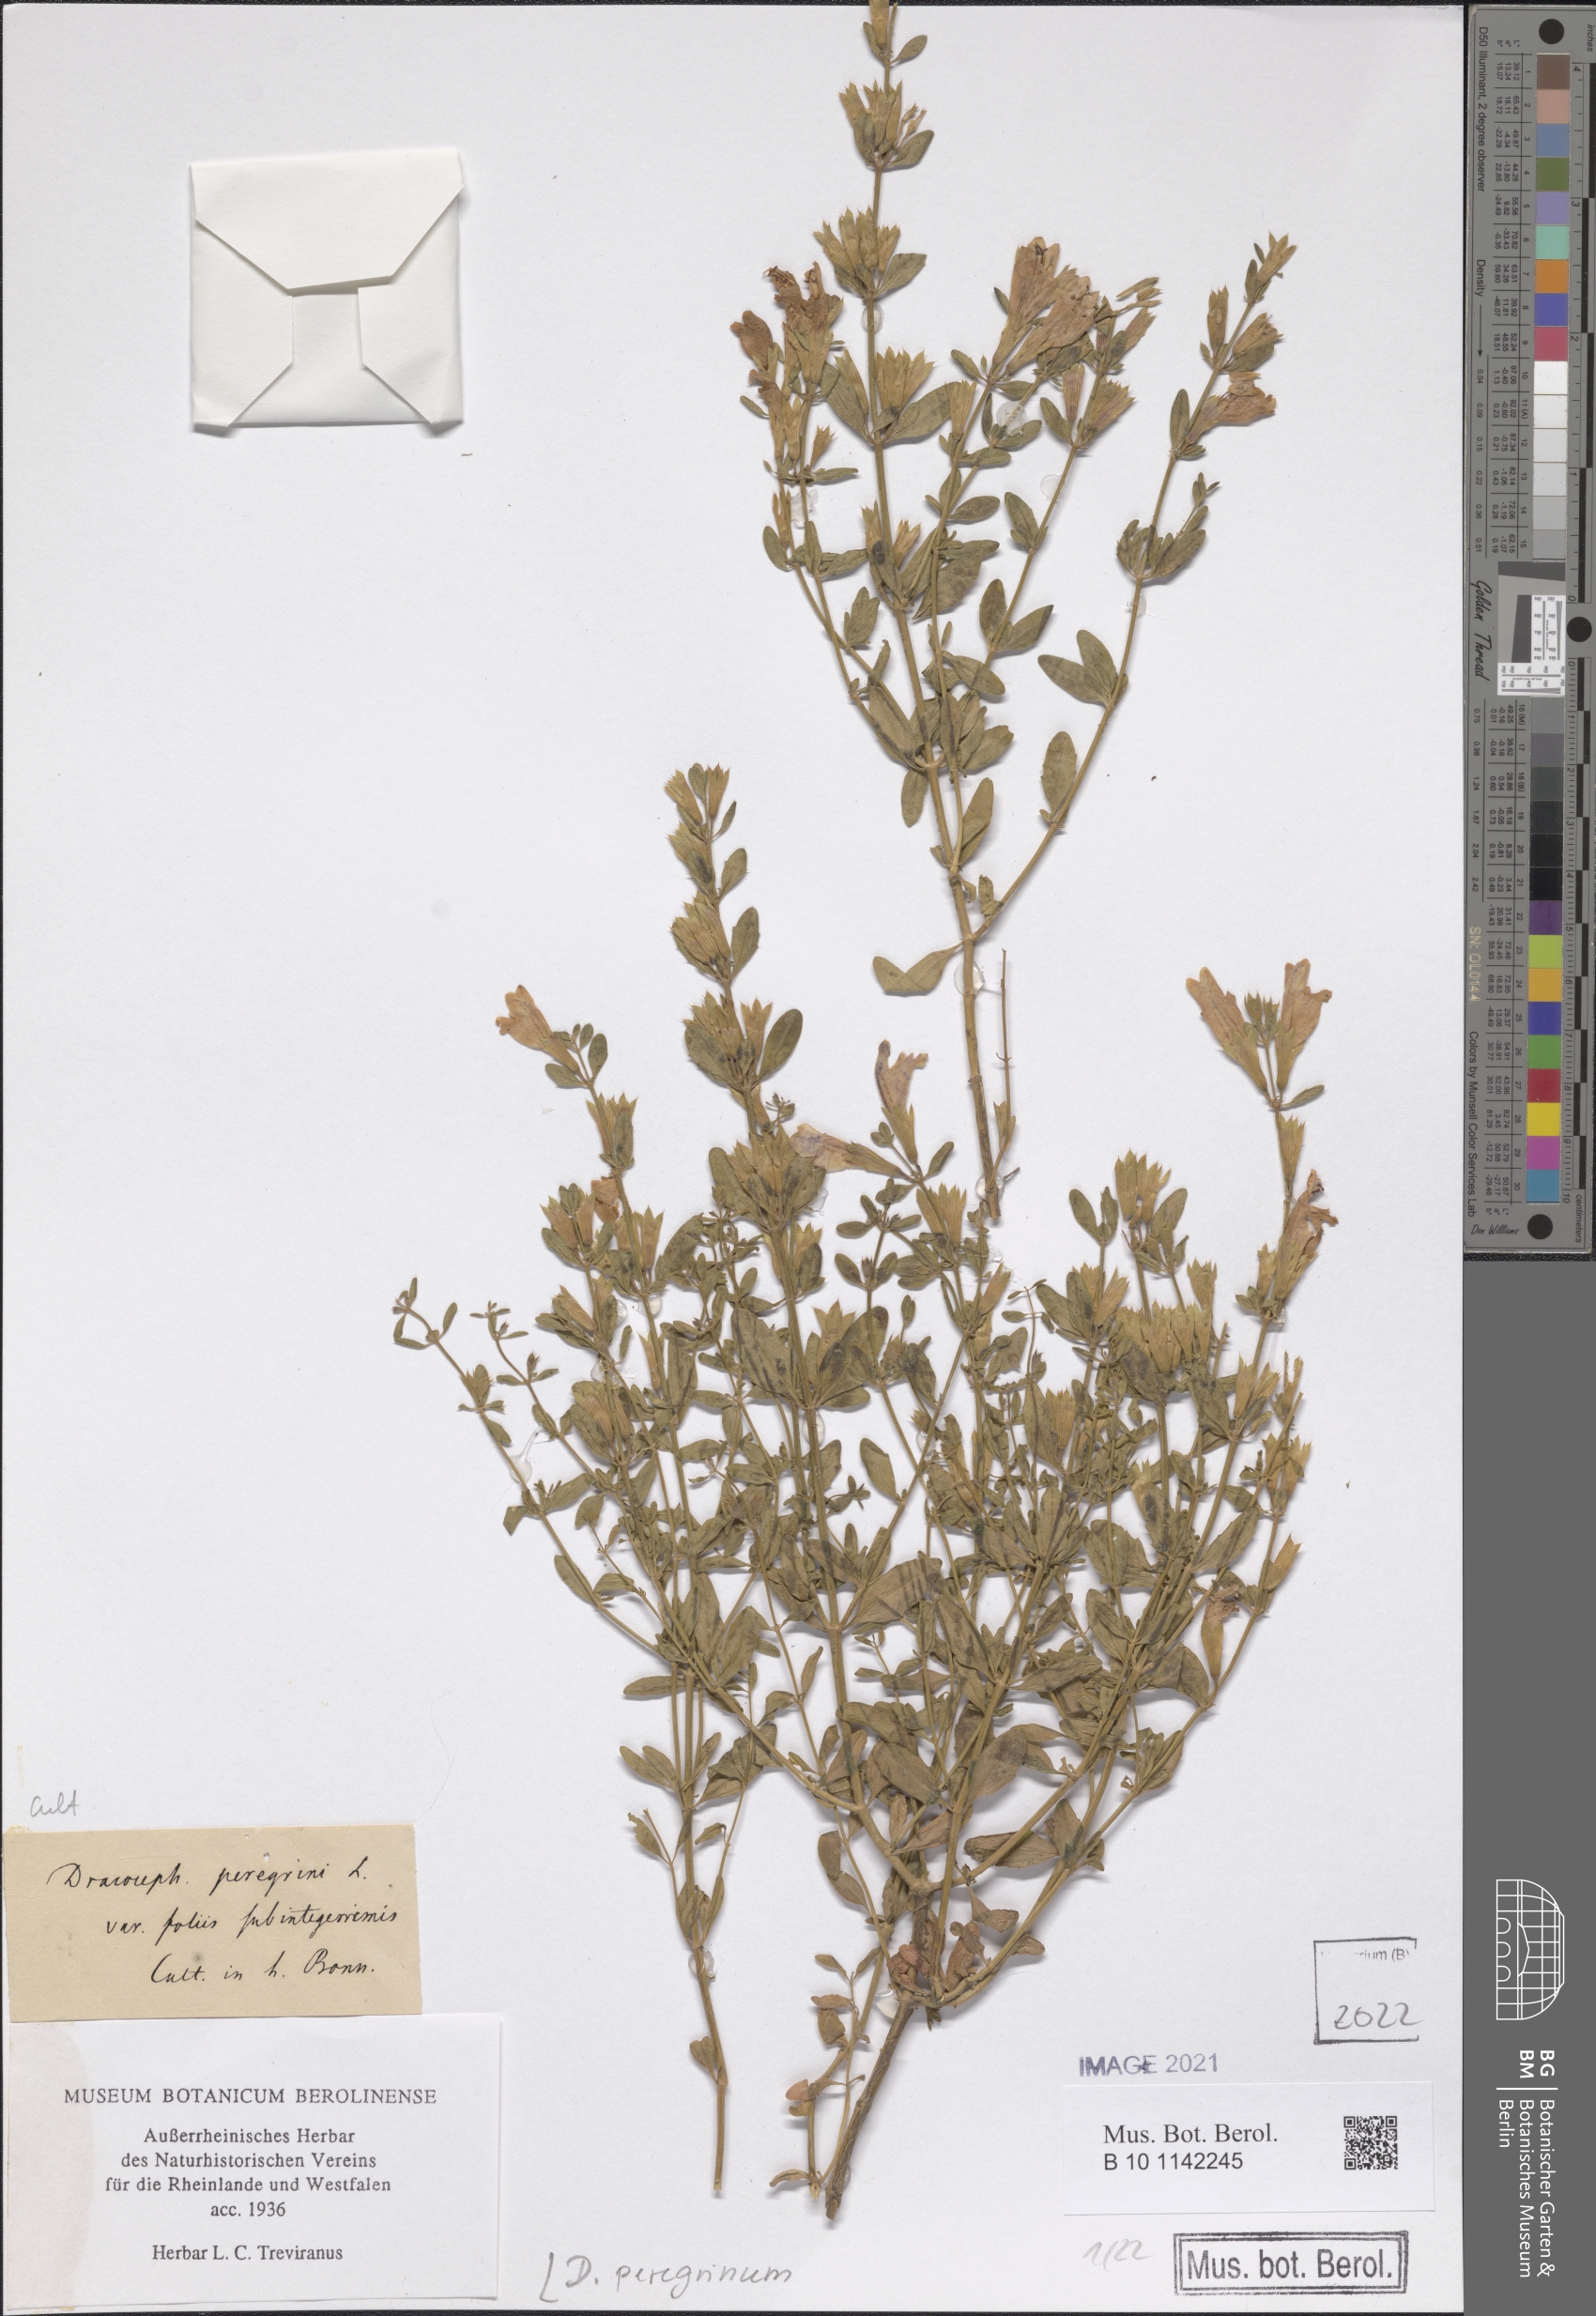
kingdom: Plantae
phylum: Tracheophyta
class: Magnoliopsida
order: Lamiales
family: Lamiaceae
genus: Dracocephalum
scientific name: Dracocephalum peregrinum
